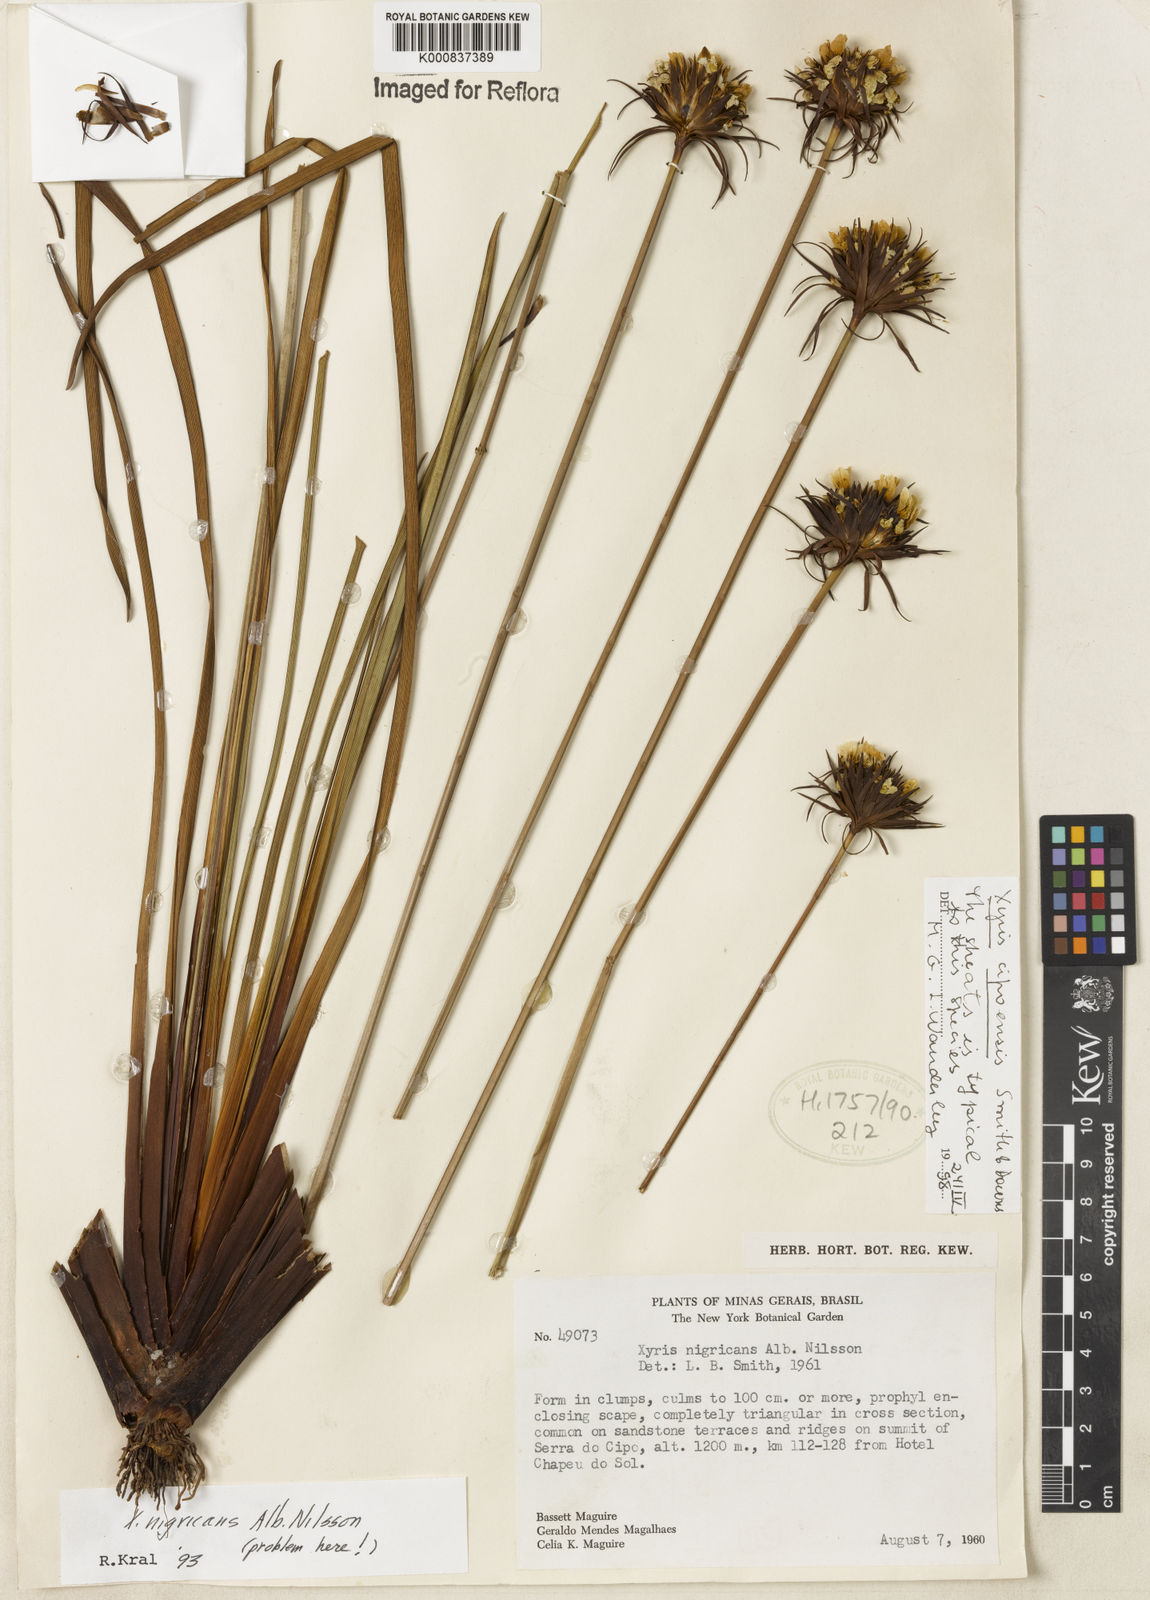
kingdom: Plantae
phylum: Tracheophyta
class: Liliopsida
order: Poales
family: Xyridaceae
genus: Xyris
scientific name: Xyris cipoensis
